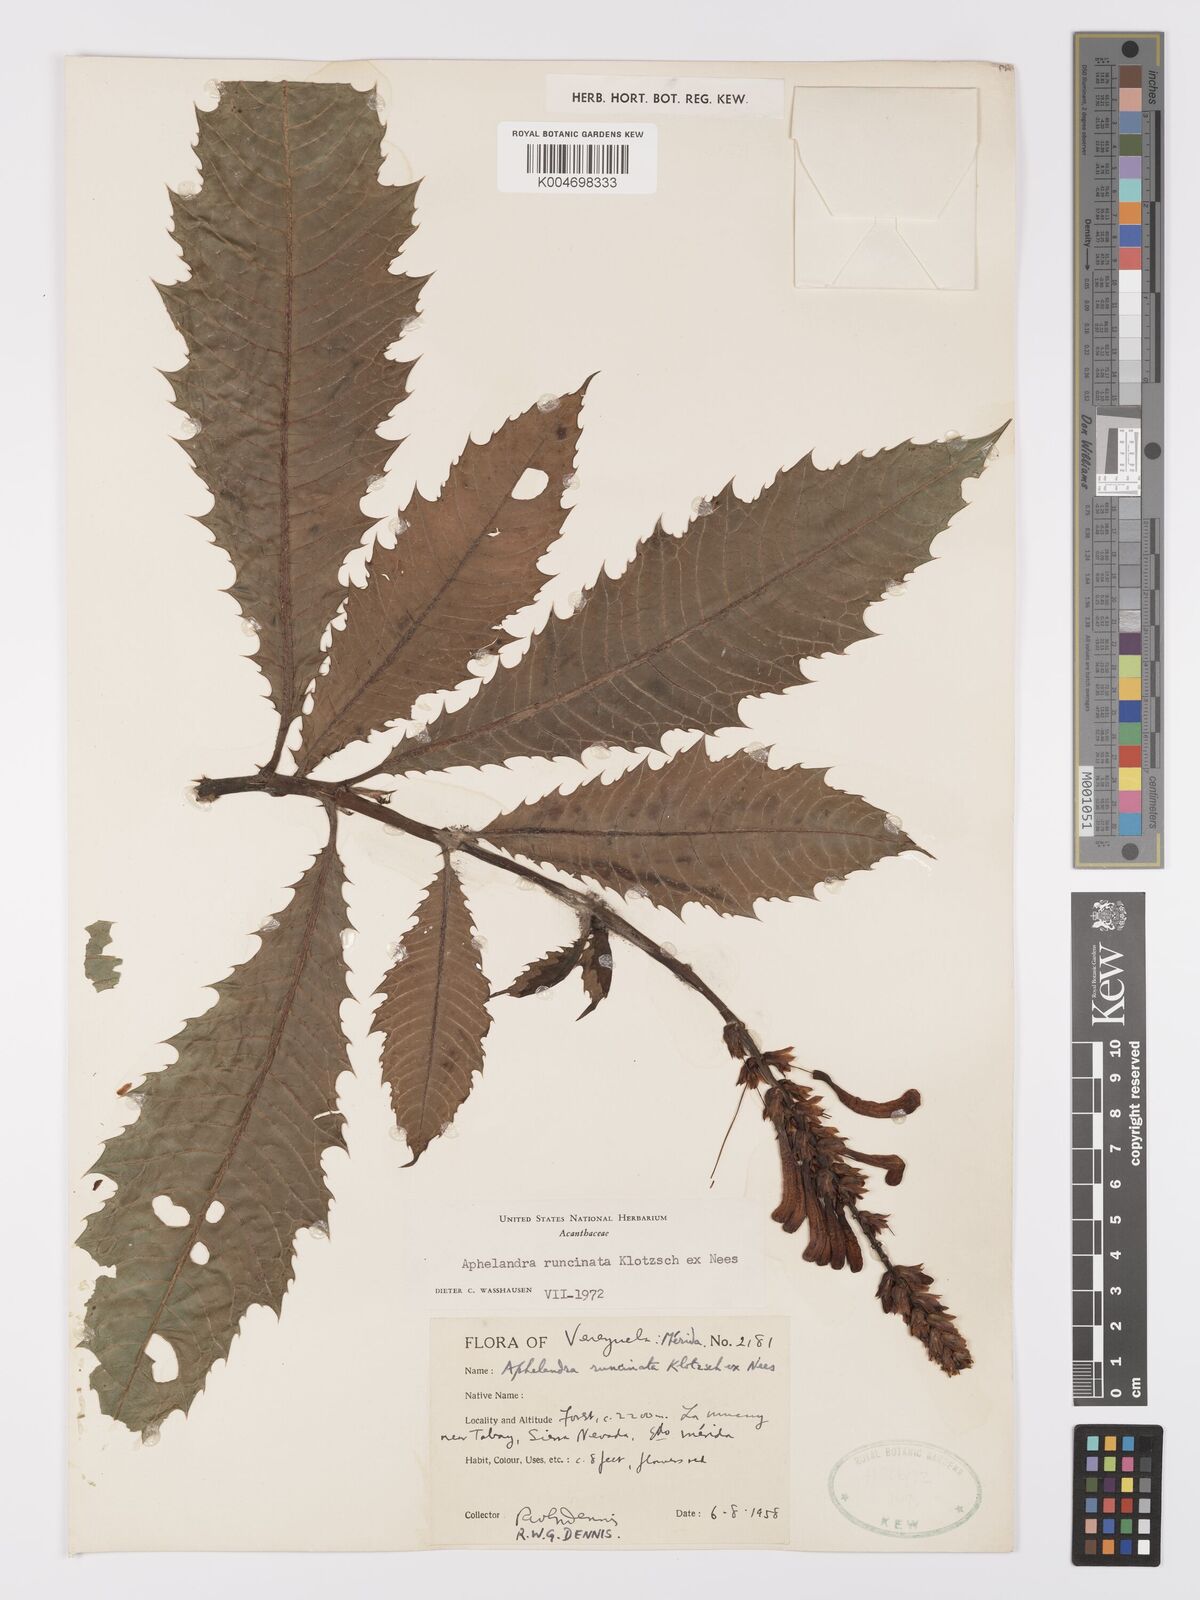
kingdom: Plantae
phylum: Tracheophyta
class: Magnoliopsida
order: Lamiales
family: Acanthaceae
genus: Aphelandra
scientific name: Aphelandra runcinata
